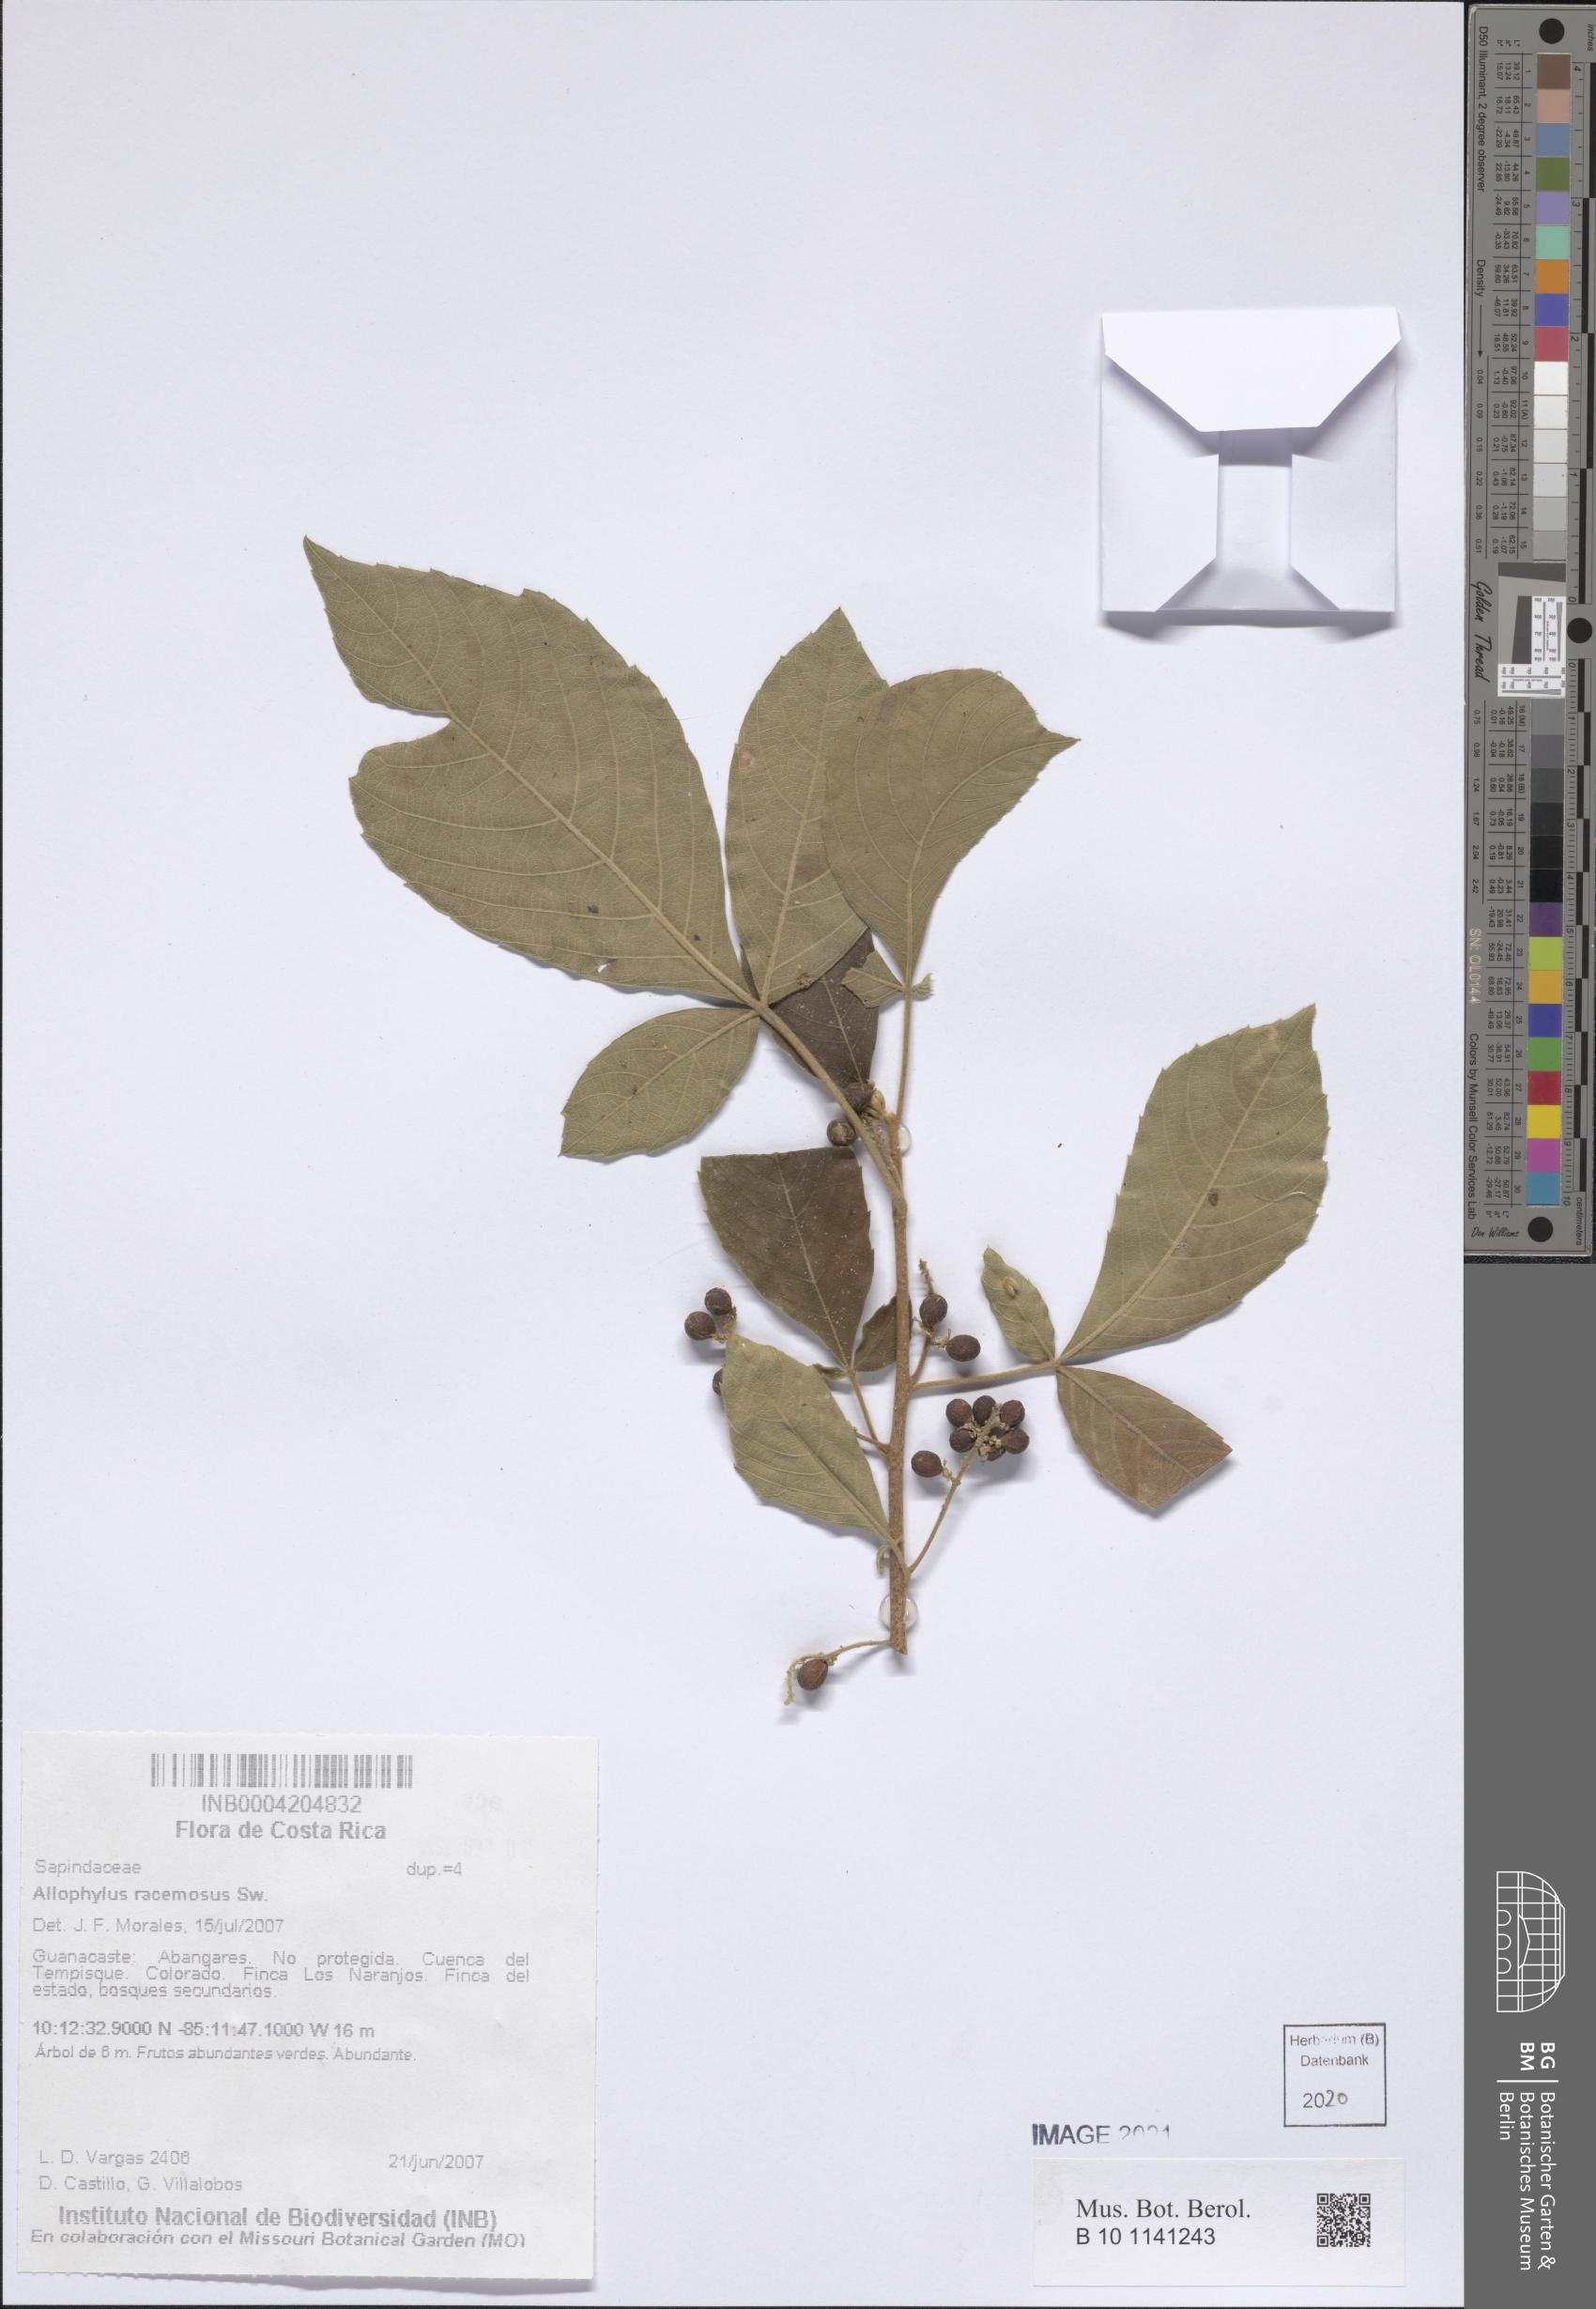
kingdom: Plantae
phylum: Tracheophyta
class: Magnoliopsida
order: Sapindales
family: Sapindaceae
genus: Allophylus
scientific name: Allophylus racemosus
